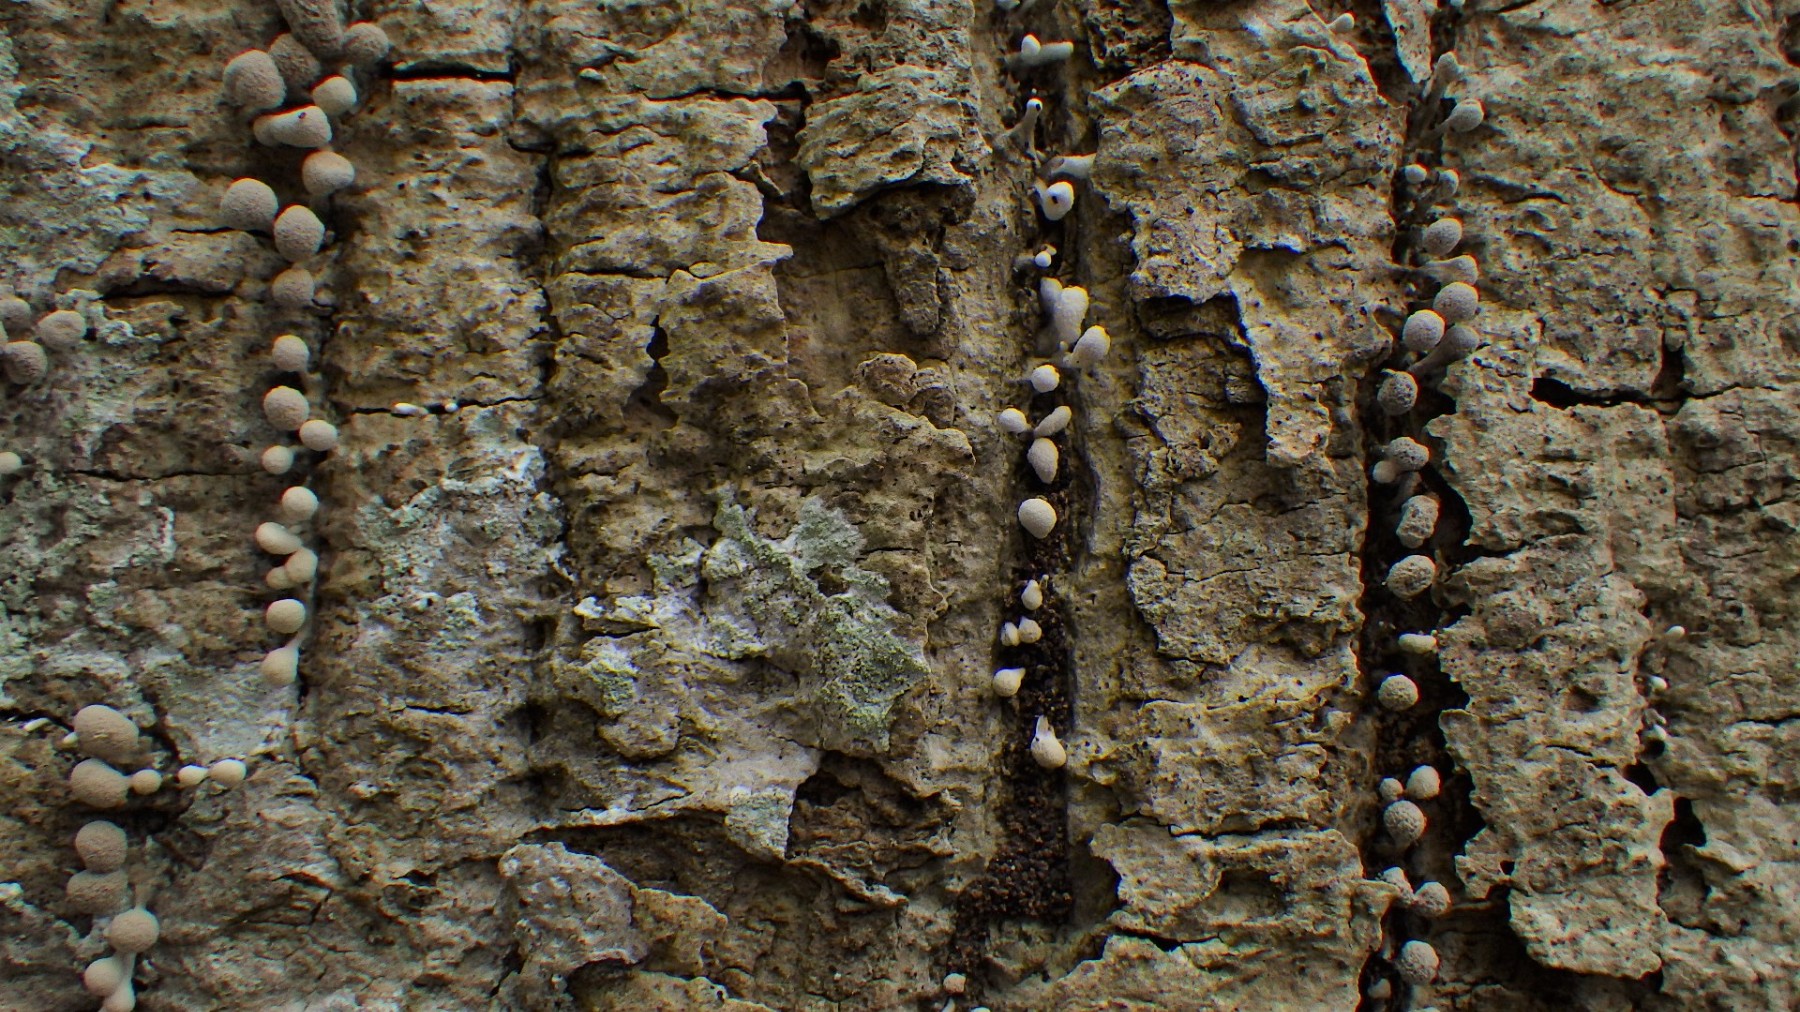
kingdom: Fungi
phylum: Basidiomycota
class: Atractiellomycetes
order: Atractiellales
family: Phleogenaceae
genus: Phleogena
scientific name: Phleogena faginea
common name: pudderkølle
